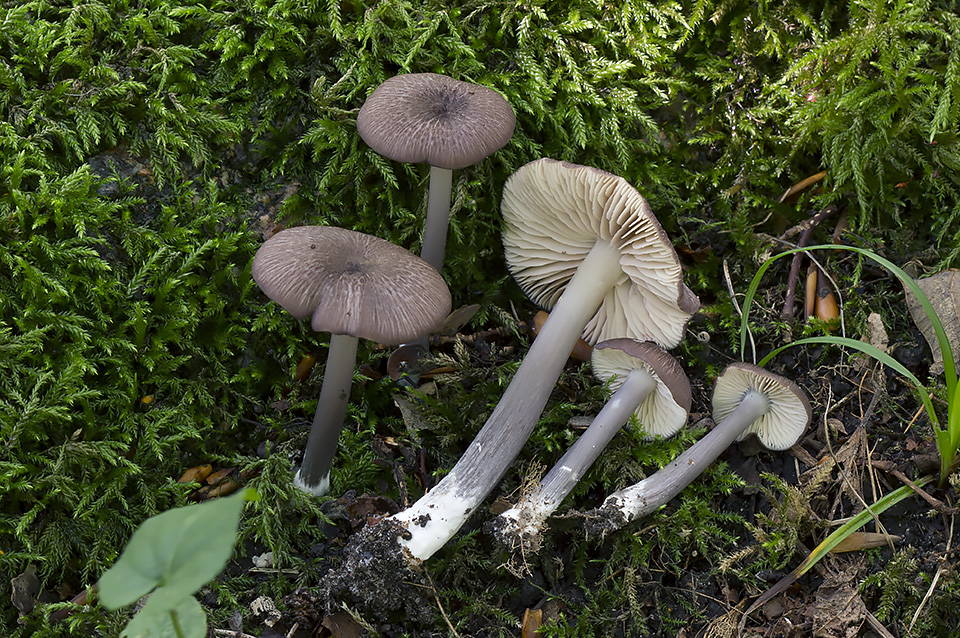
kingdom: Fungi
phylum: Basidiomycota
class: Agaricomycetes
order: Agaricales
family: Entolomataceae
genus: Entoloma
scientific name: Entoloma viiduense
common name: purpurbrun rødblad
